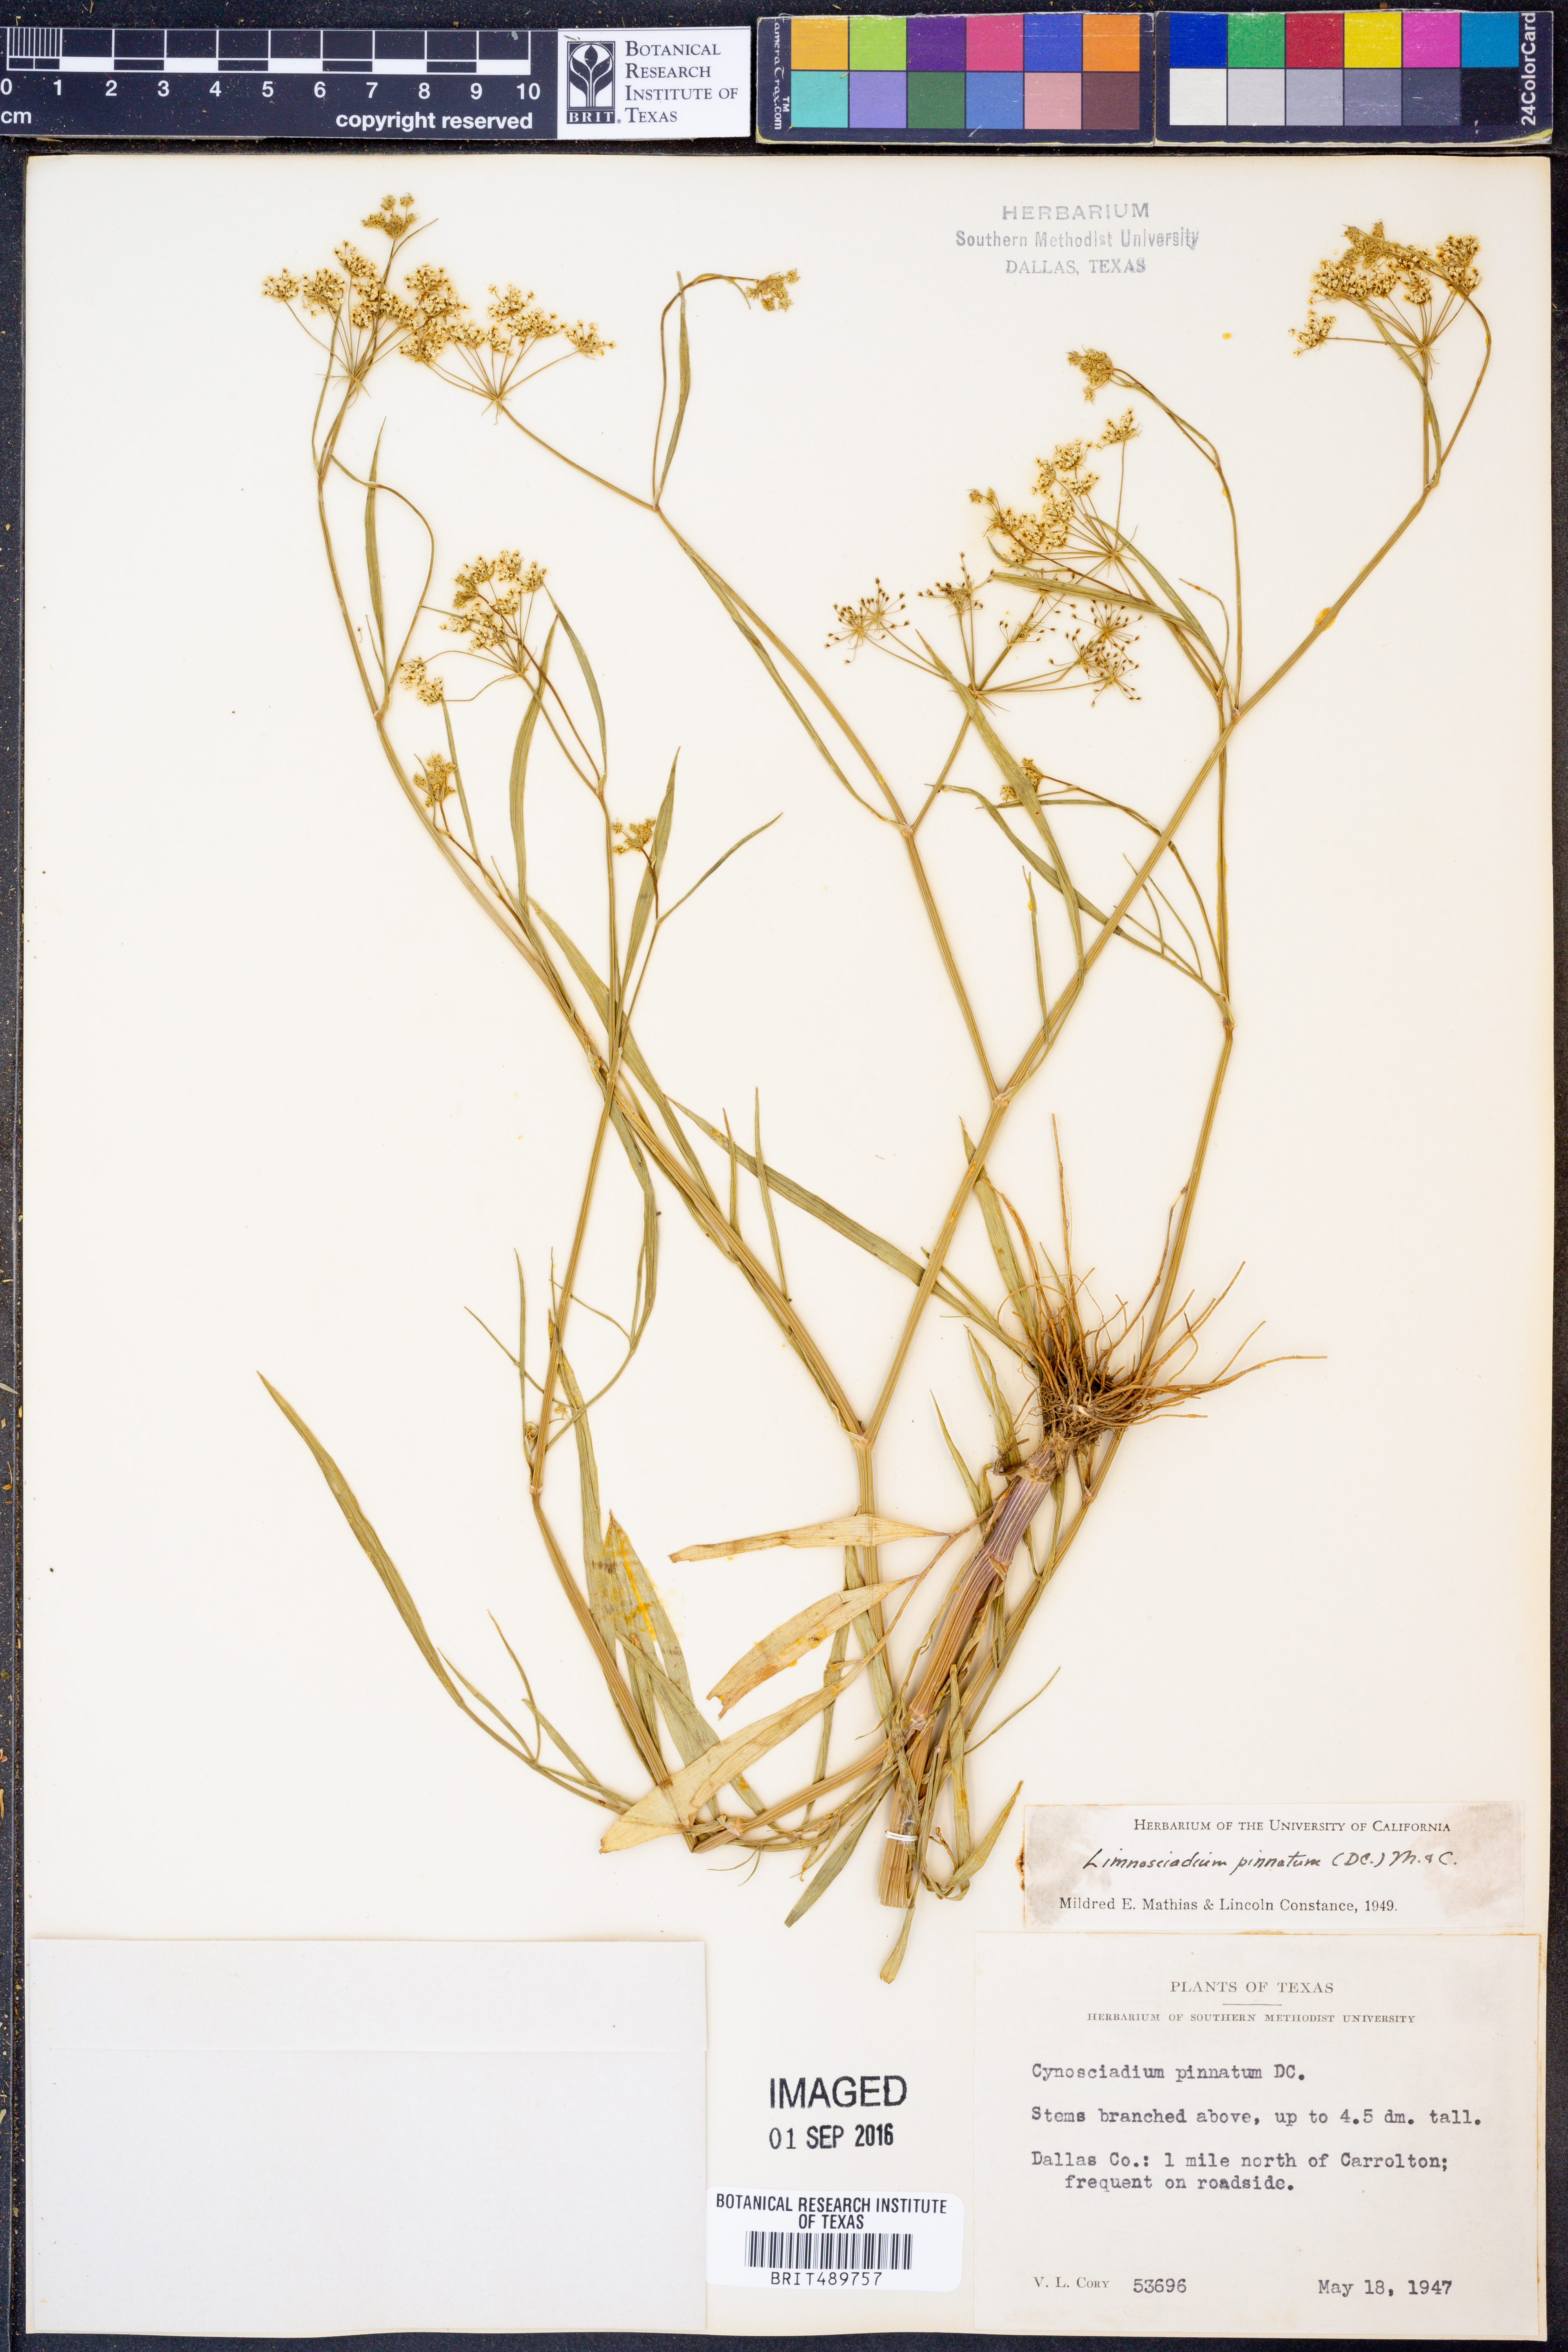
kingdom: Plantae
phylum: Tracheophyta
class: Magnoliopsida
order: Apiales
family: Apiaceae
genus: Limnosciadium
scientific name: Limnosciadium pinnatum
